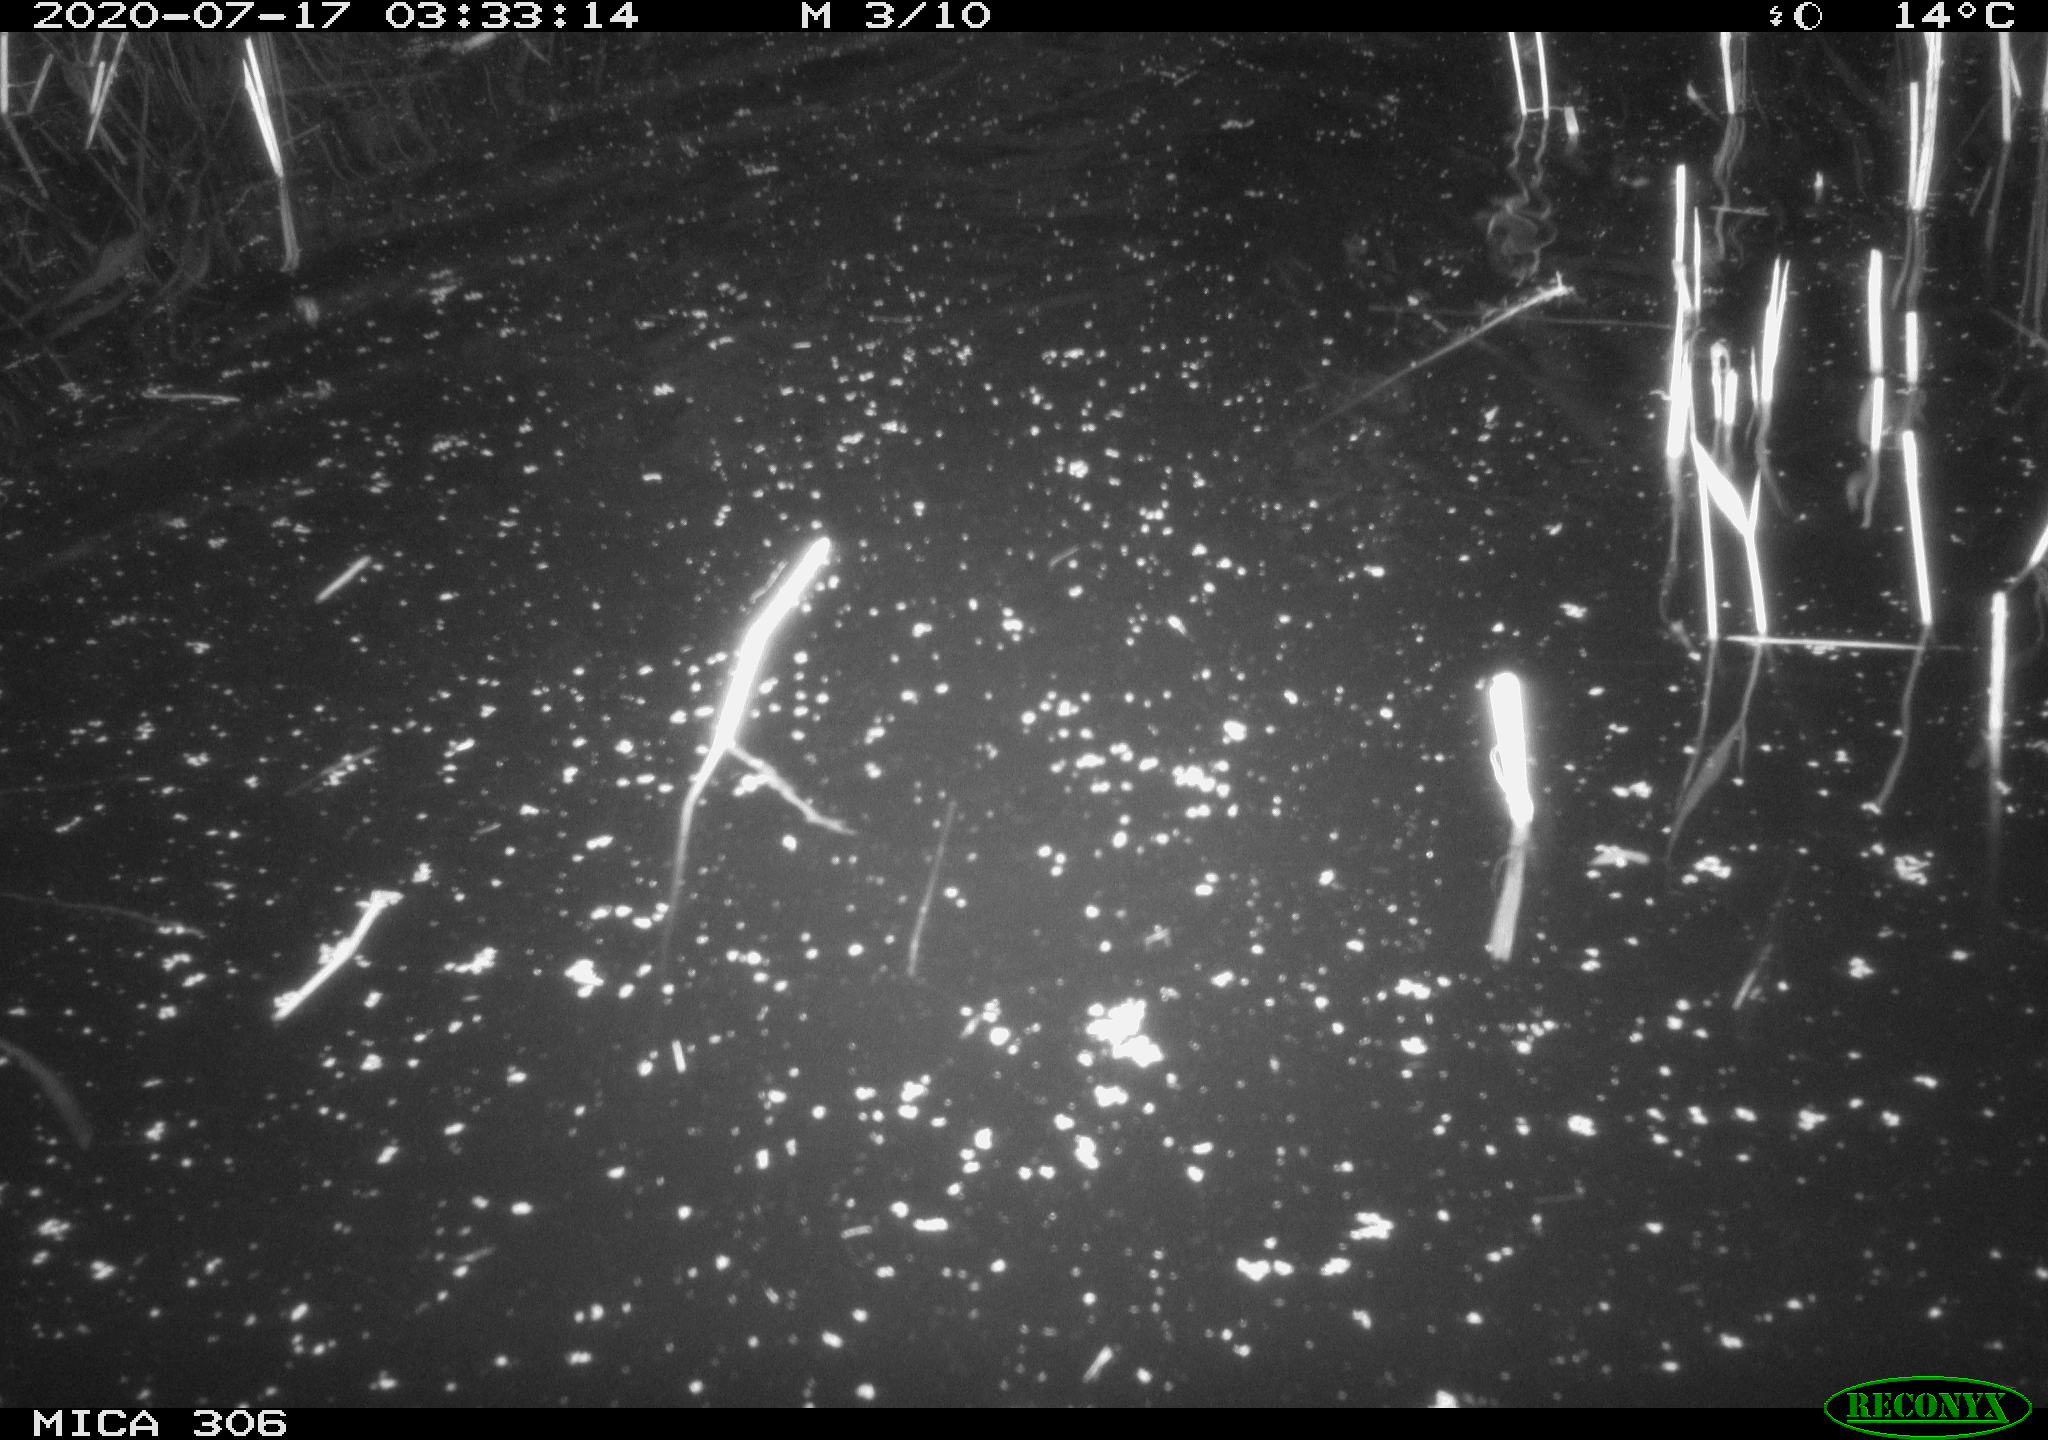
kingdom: Animalia
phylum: Chordata
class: Mammalia
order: Rodentia
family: Cricetidae
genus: Ondatra
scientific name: Ondatra zibethicus
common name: Muskrat
